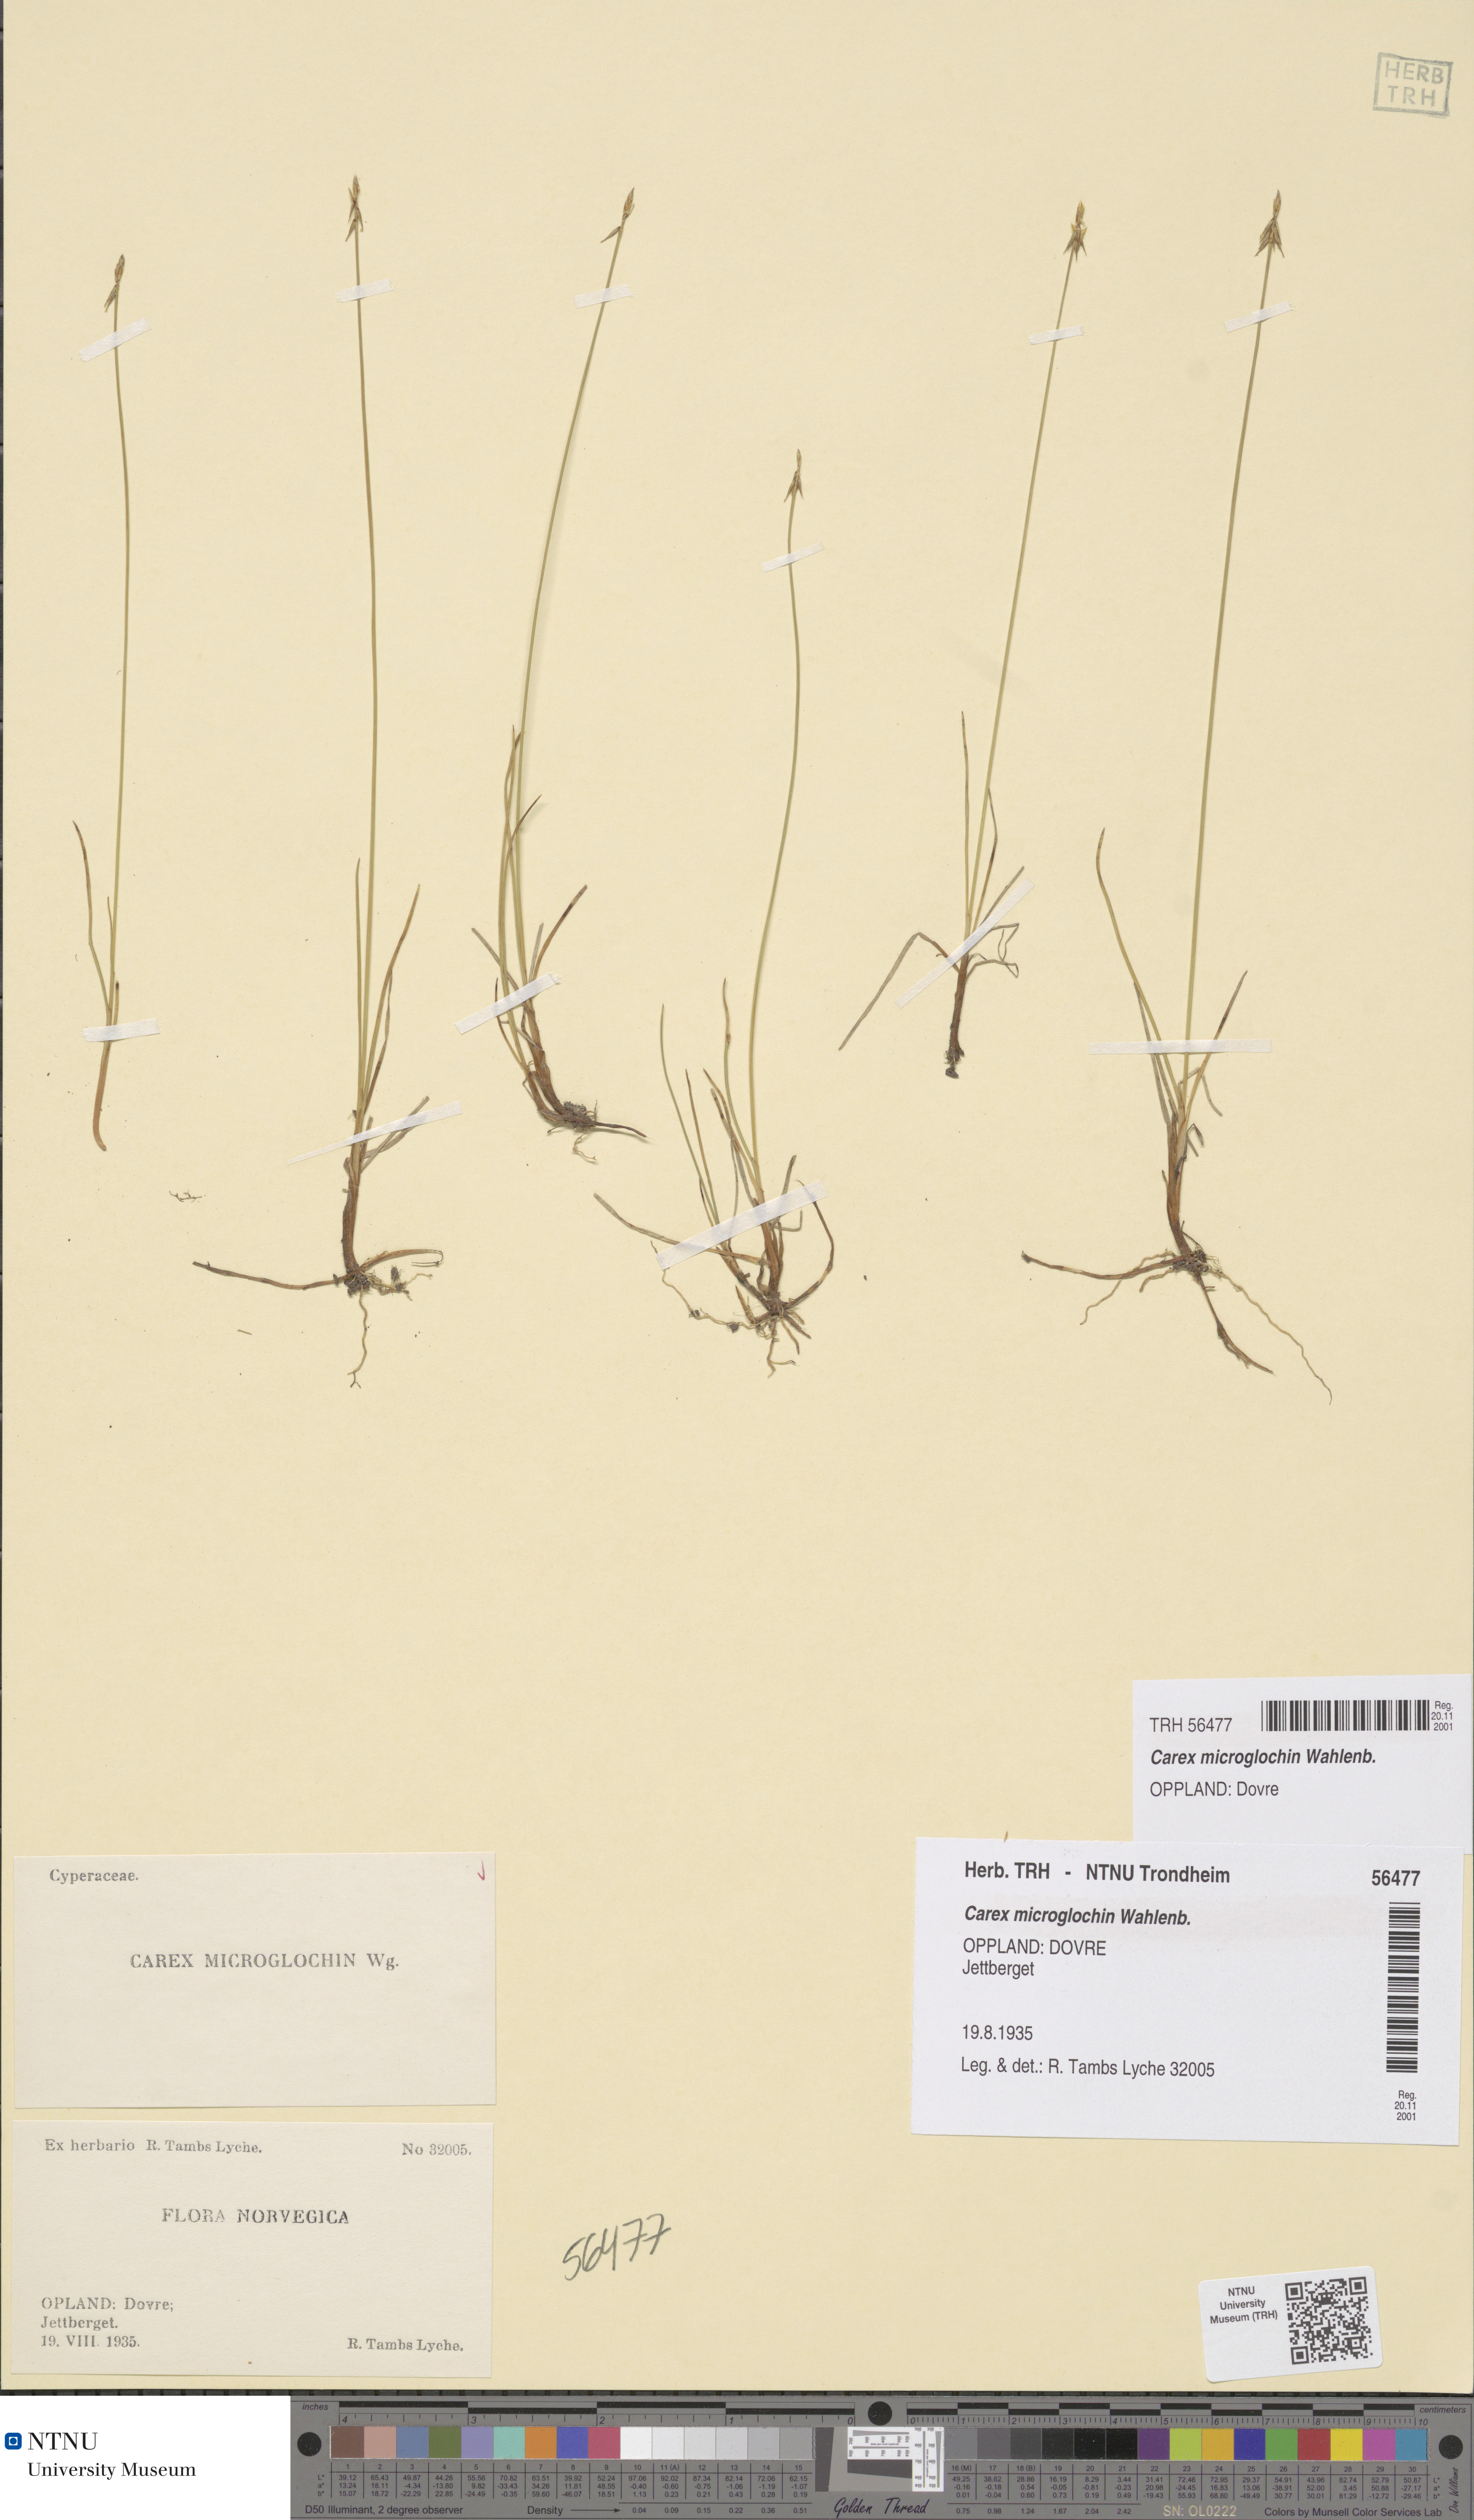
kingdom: Plantae
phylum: Tracheophyta
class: Liliopsida
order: Poales
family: Cyperaceae
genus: Carex
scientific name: Carex microglochin
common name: Bristle sedge
